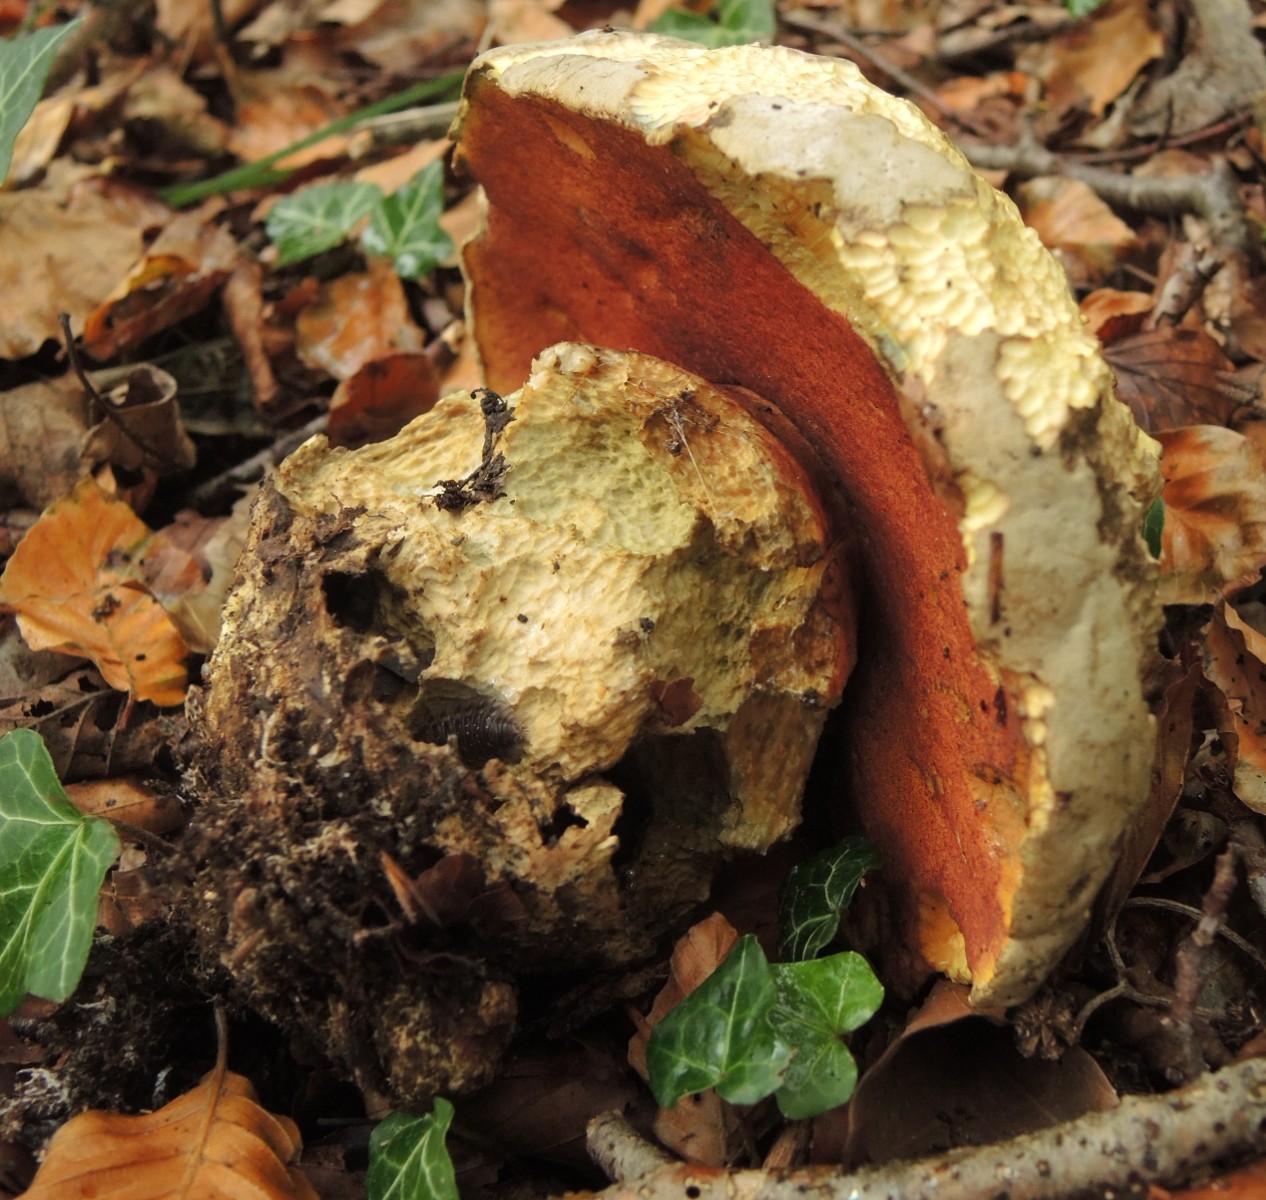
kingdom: Fungi
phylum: Basidiomycota
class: Agaricomycetes
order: Boletales
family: Boletaceae
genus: Rubroboletus
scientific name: Rubroboletus satanas
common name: Satans rørhat
